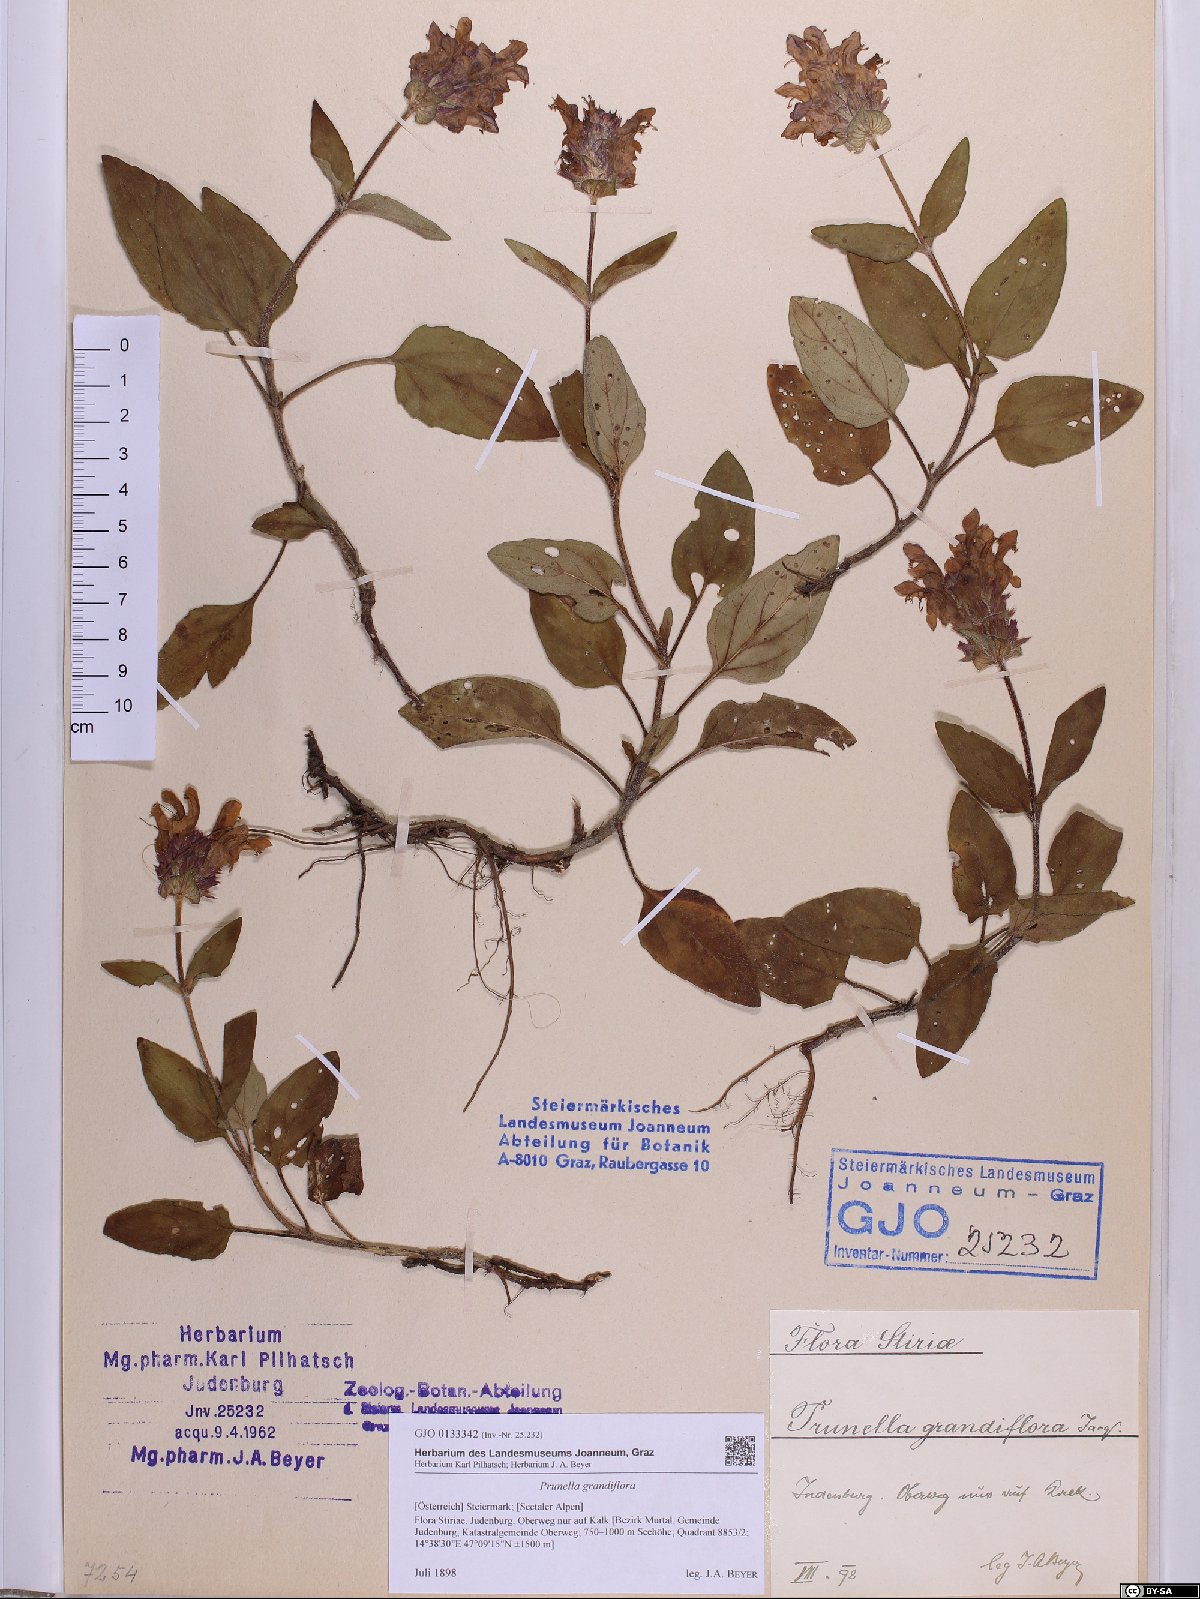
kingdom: Plantae
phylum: Tracheophyta
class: Magnoliopsida
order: Lamiales
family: Lamiaceae
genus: Prunella
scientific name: Prunella grandiflora
